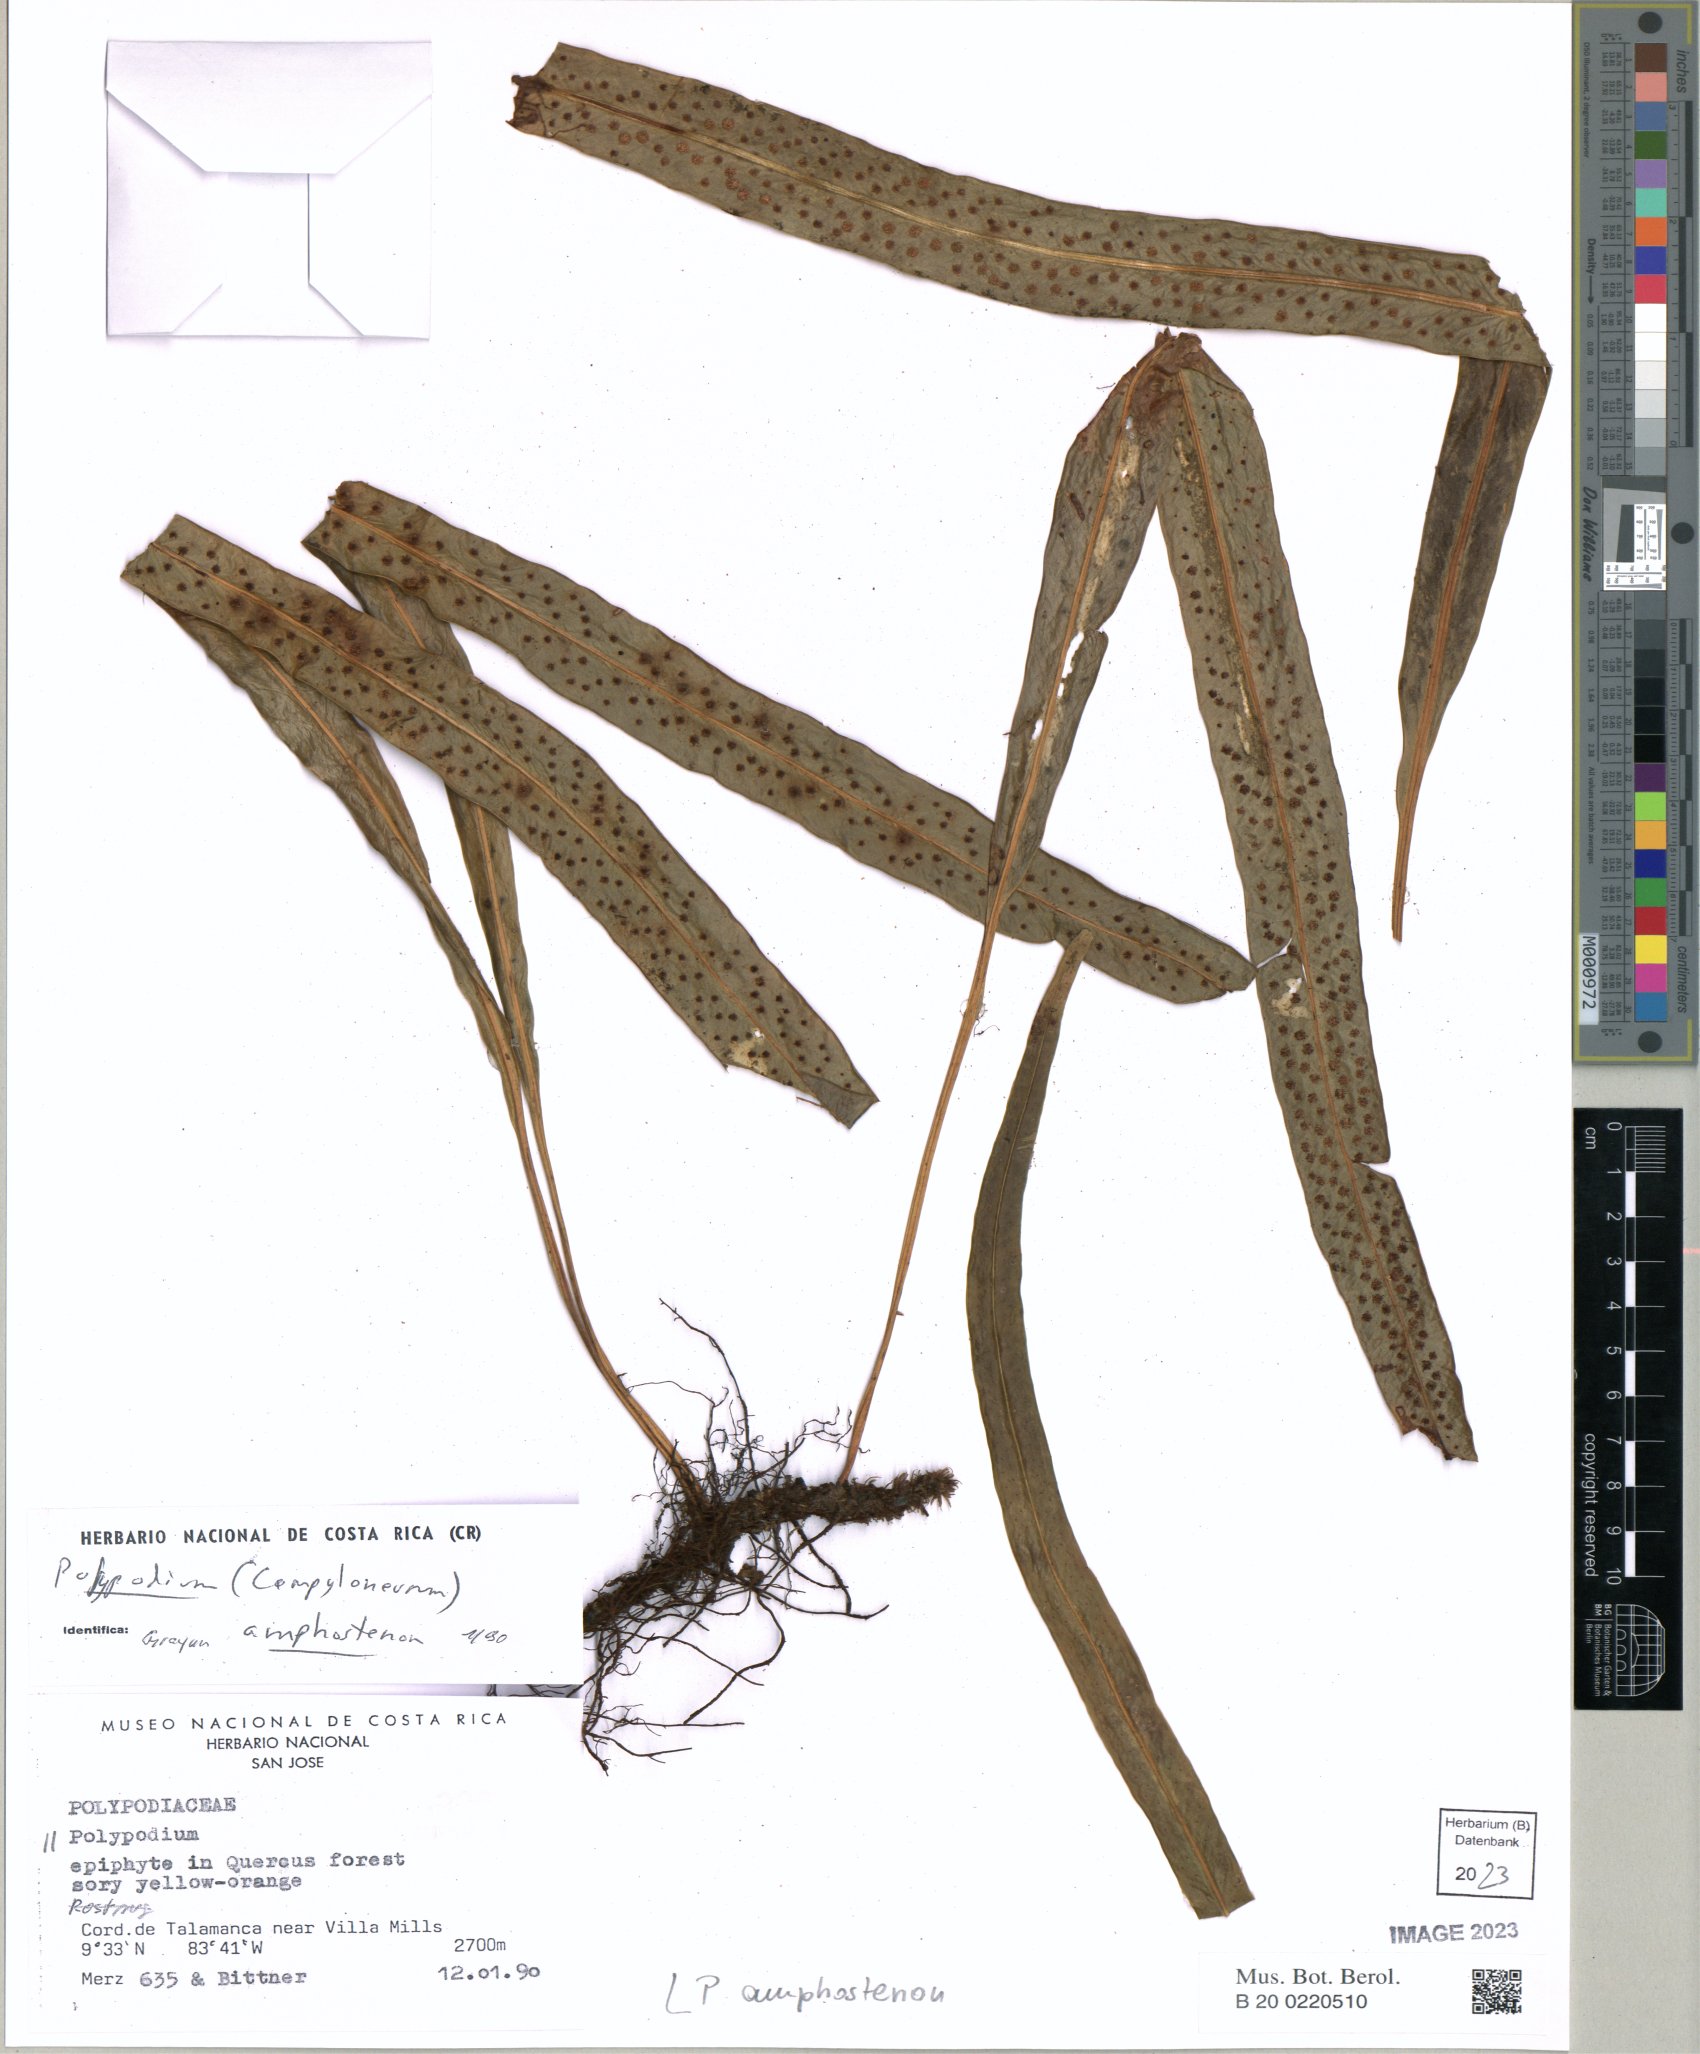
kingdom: Plantae
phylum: Tracheophyta
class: Polypodiopsida
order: Polypodiales
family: Polypodiaceae
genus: Campyloneurum
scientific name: Campyloneurum amphostenon
